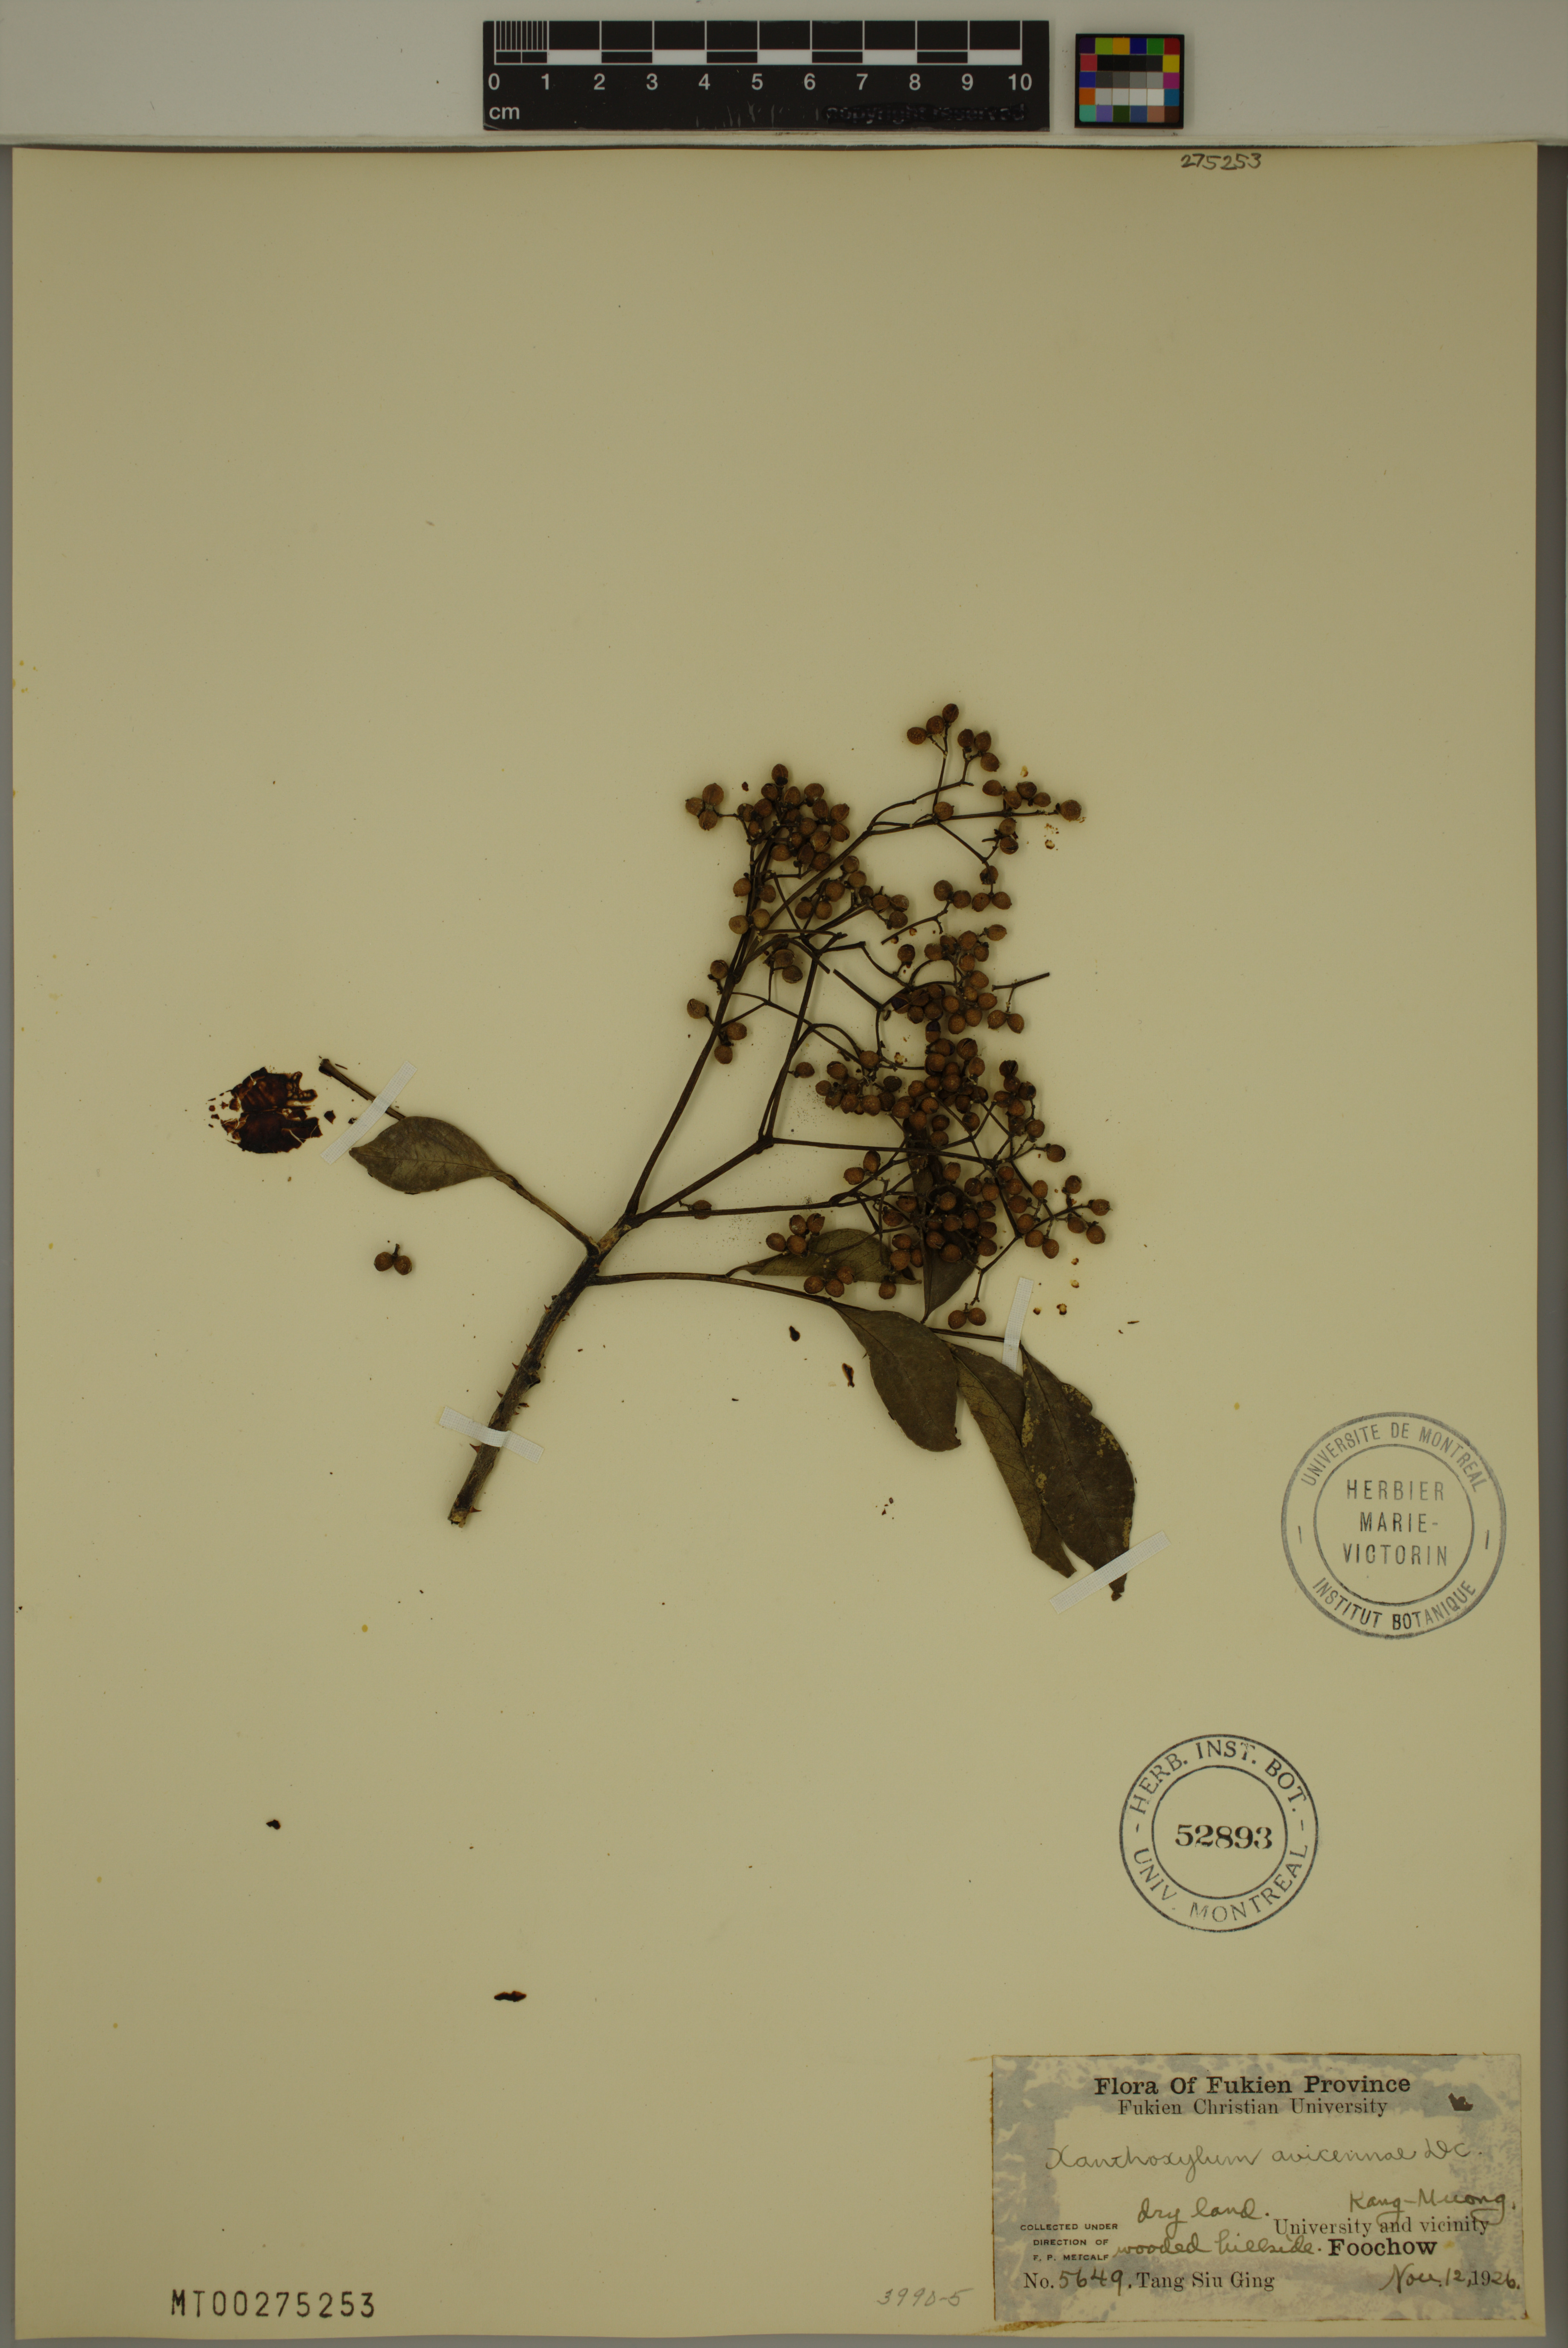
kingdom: Plantae
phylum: Tracheophyta
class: Magnoliopsida
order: Sapindales
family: Rutaceae
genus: Zanthoxylum
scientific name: Zanthoxylum avicennae
